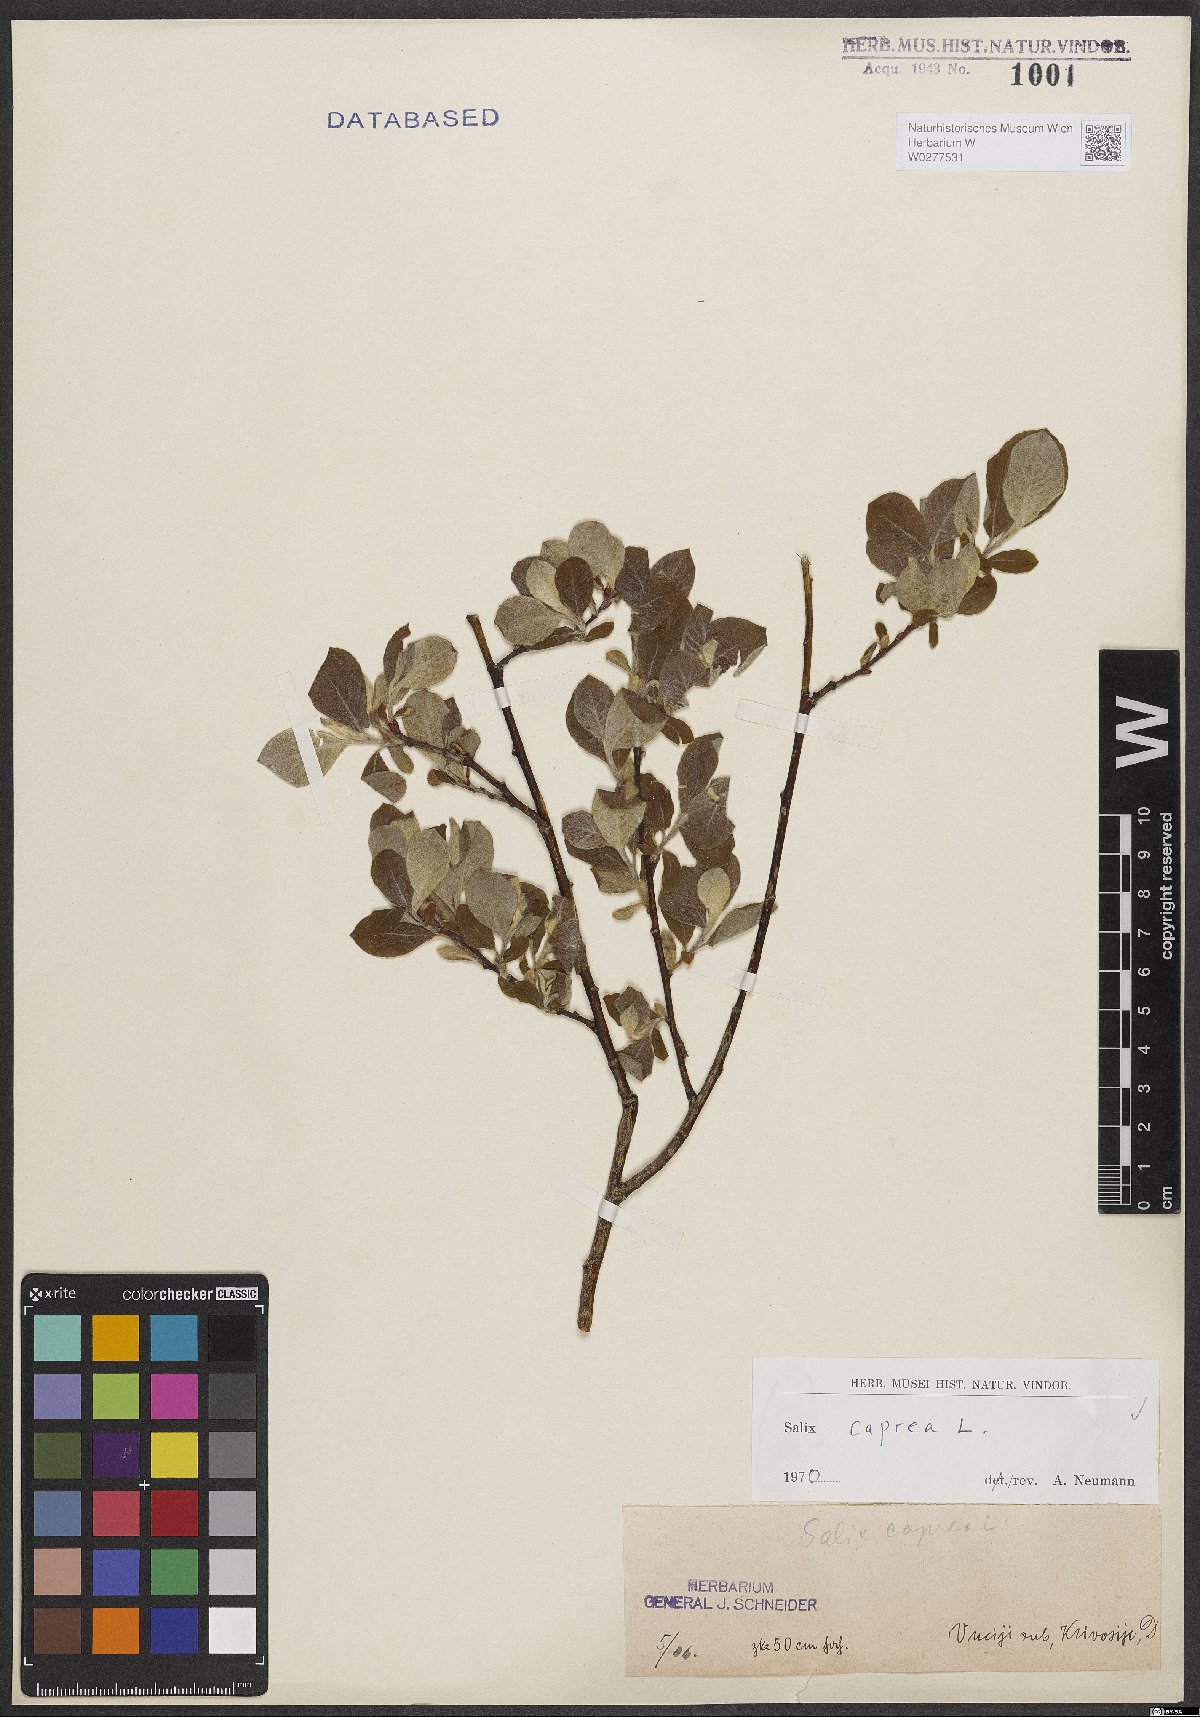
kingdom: Plantae
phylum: Tracheophyta
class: Magnoliopsida
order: Malpighiales
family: Salicaceae
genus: Salix
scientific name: Salix caprea
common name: Goat willow
